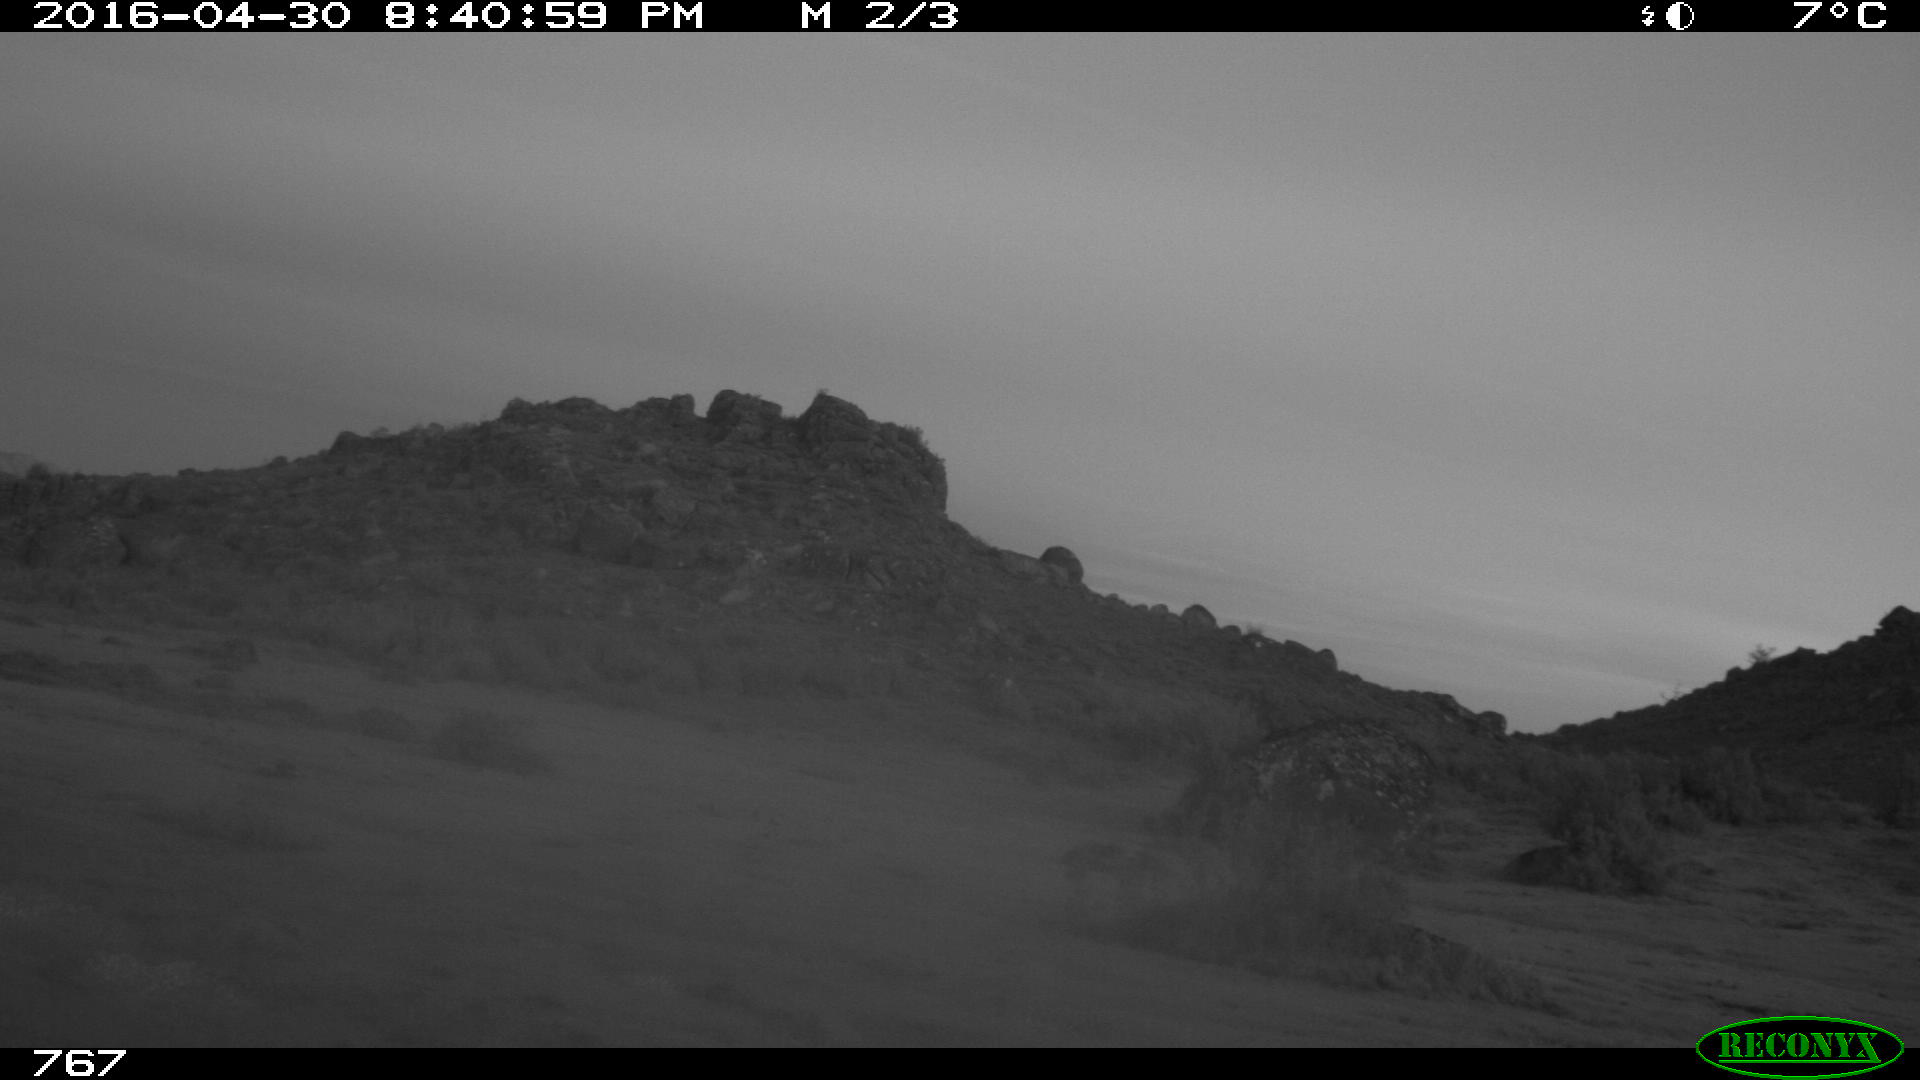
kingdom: Animalia
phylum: Chordata
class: Mammalia
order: Artiodactyla
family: Bovidae
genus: Bos
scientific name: Bos taurus
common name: Domesticated cattle
